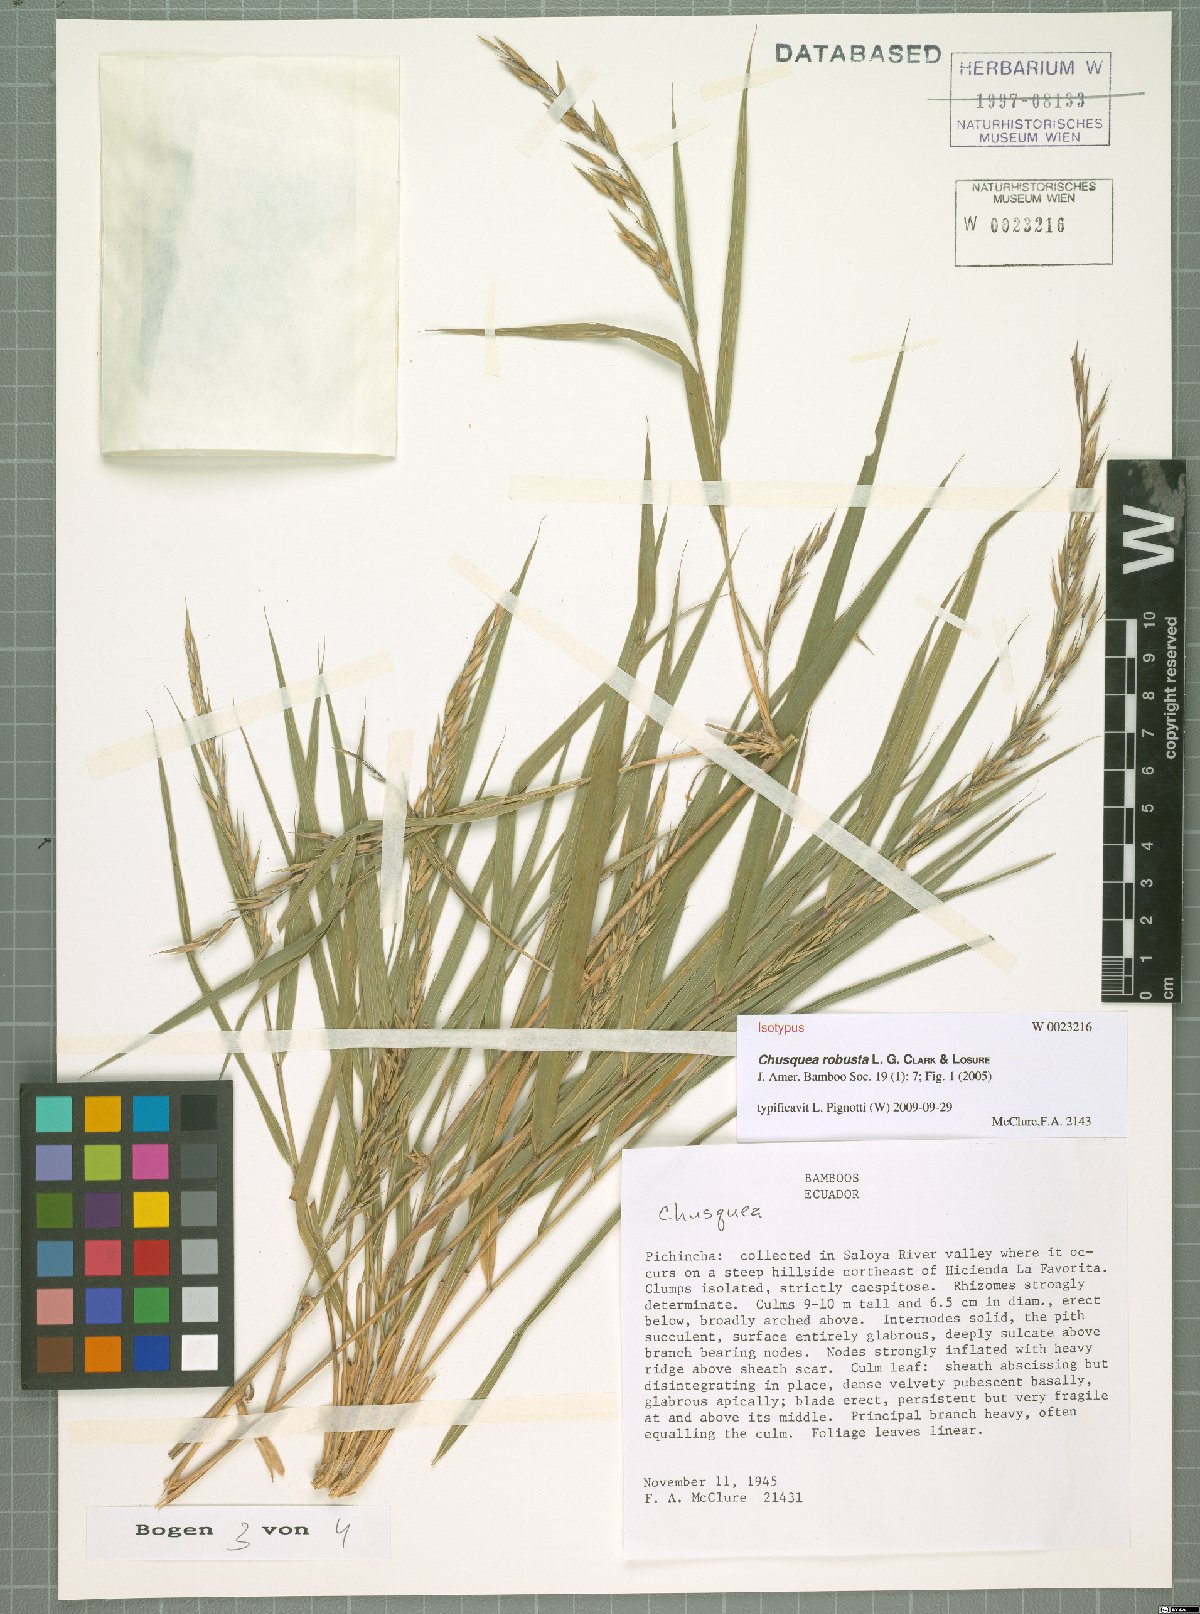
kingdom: Plantae
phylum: Tracheophyta
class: Liliopsida
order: Poales
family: Poaceae
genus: Chusquea
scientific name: Chusquea robusta
